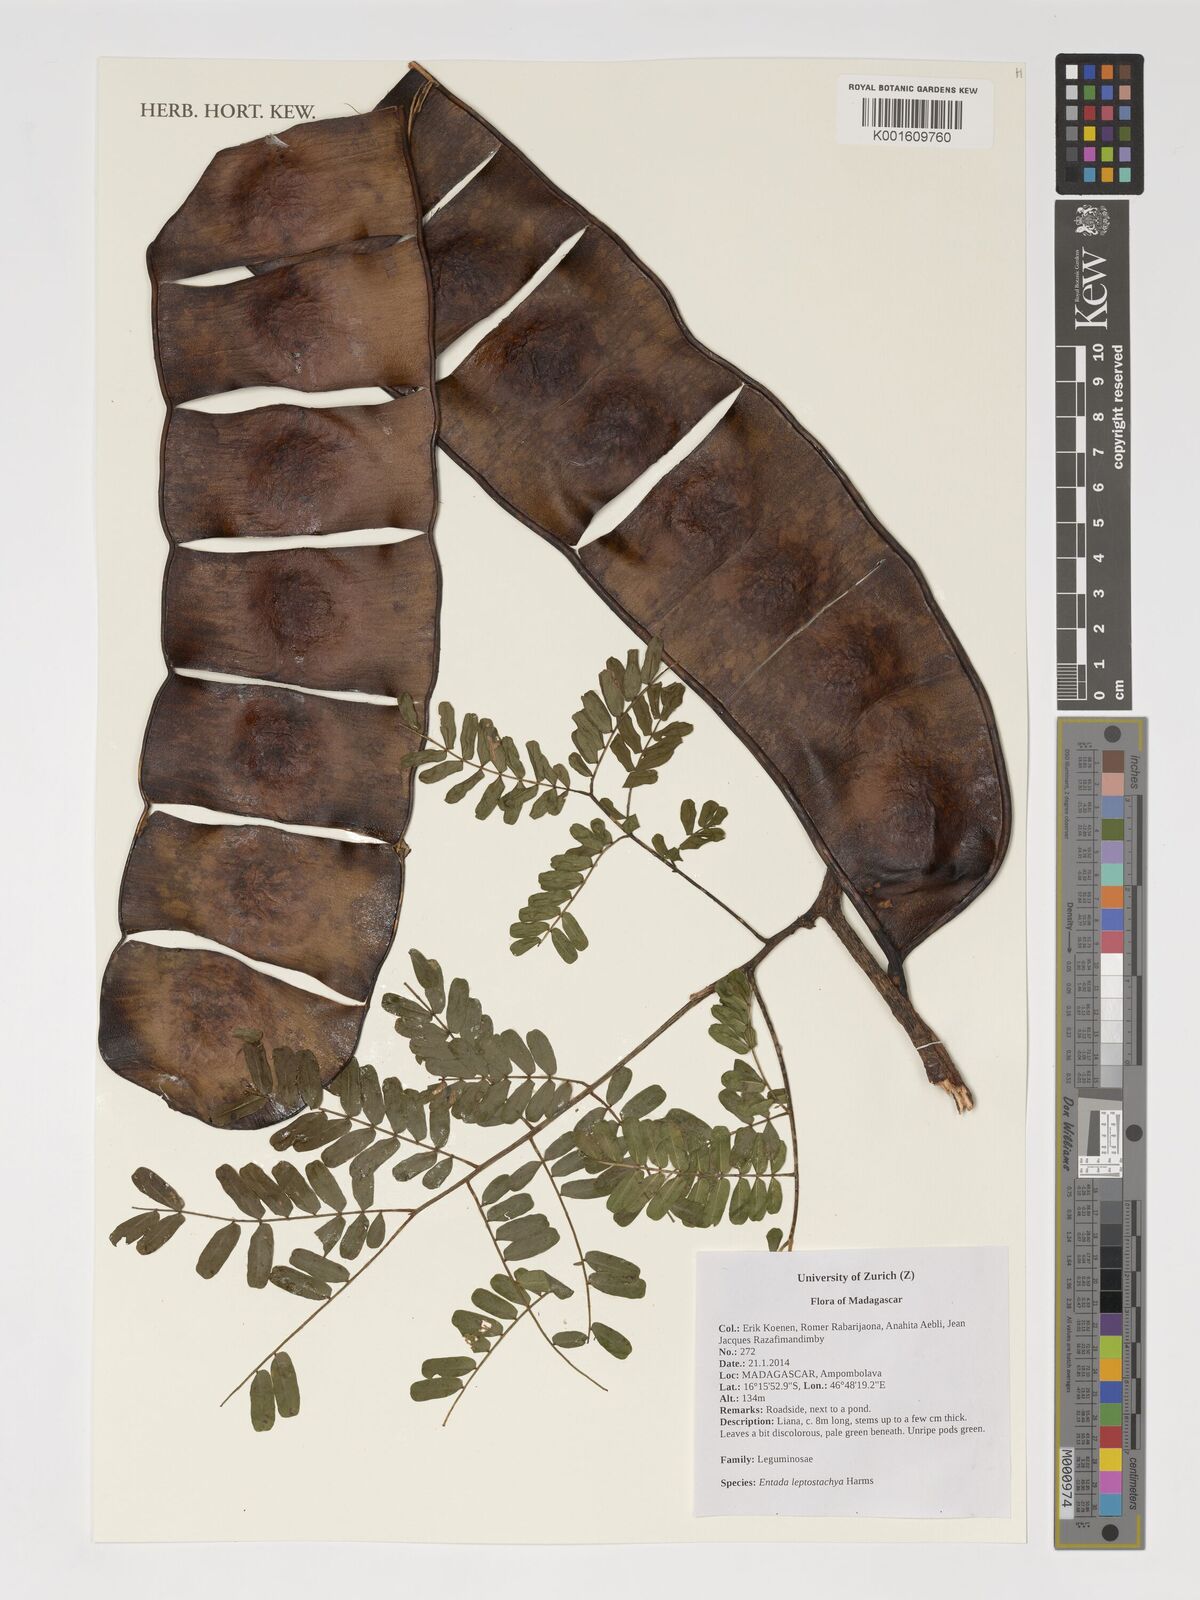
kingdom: Plantae
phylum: Tracheophyta
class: Magnoliopsida
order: Fabales
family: Fabaceae
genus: Entada
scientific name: Entada leptostachya
